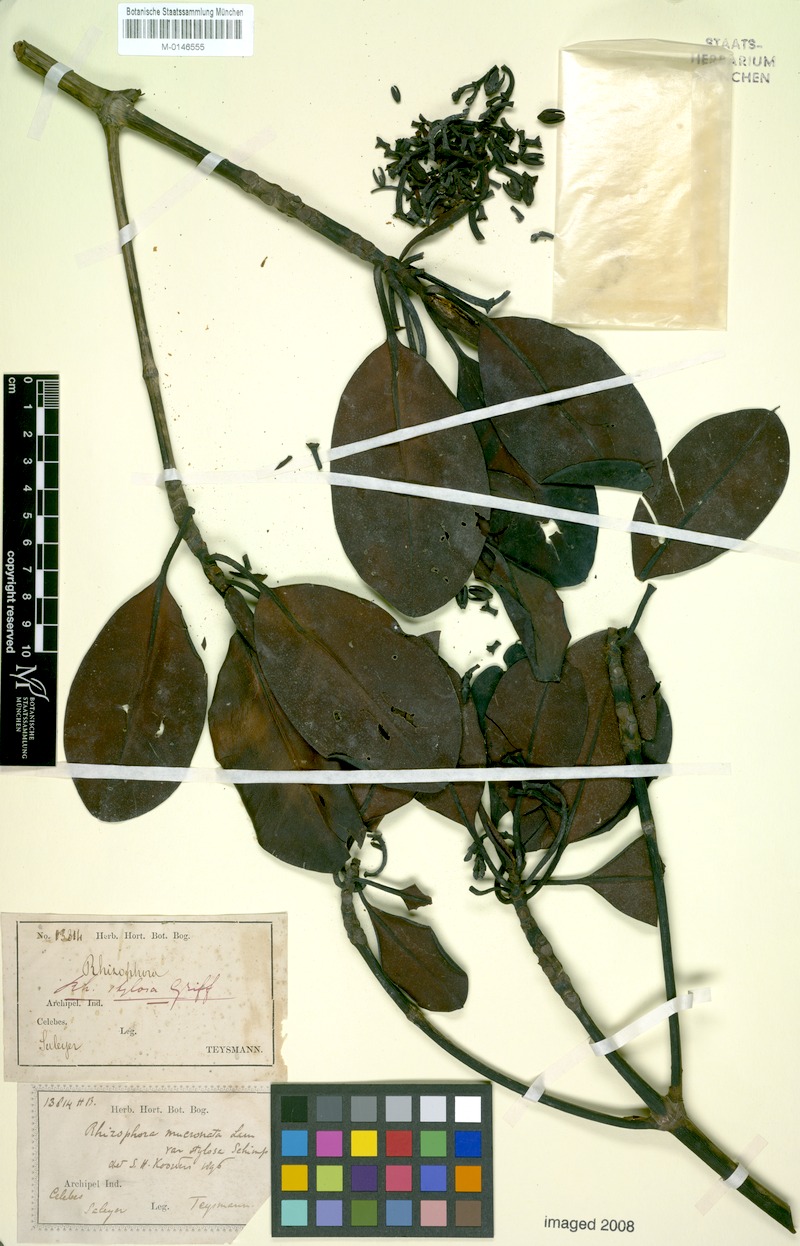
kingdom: Plantae
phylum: Tracheophyta
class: Magnoliopsida
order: Malpighiales
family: Rhizophoraceae
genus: Rhizophora
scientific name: Rhizophora stylosa
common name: Red mangrove
